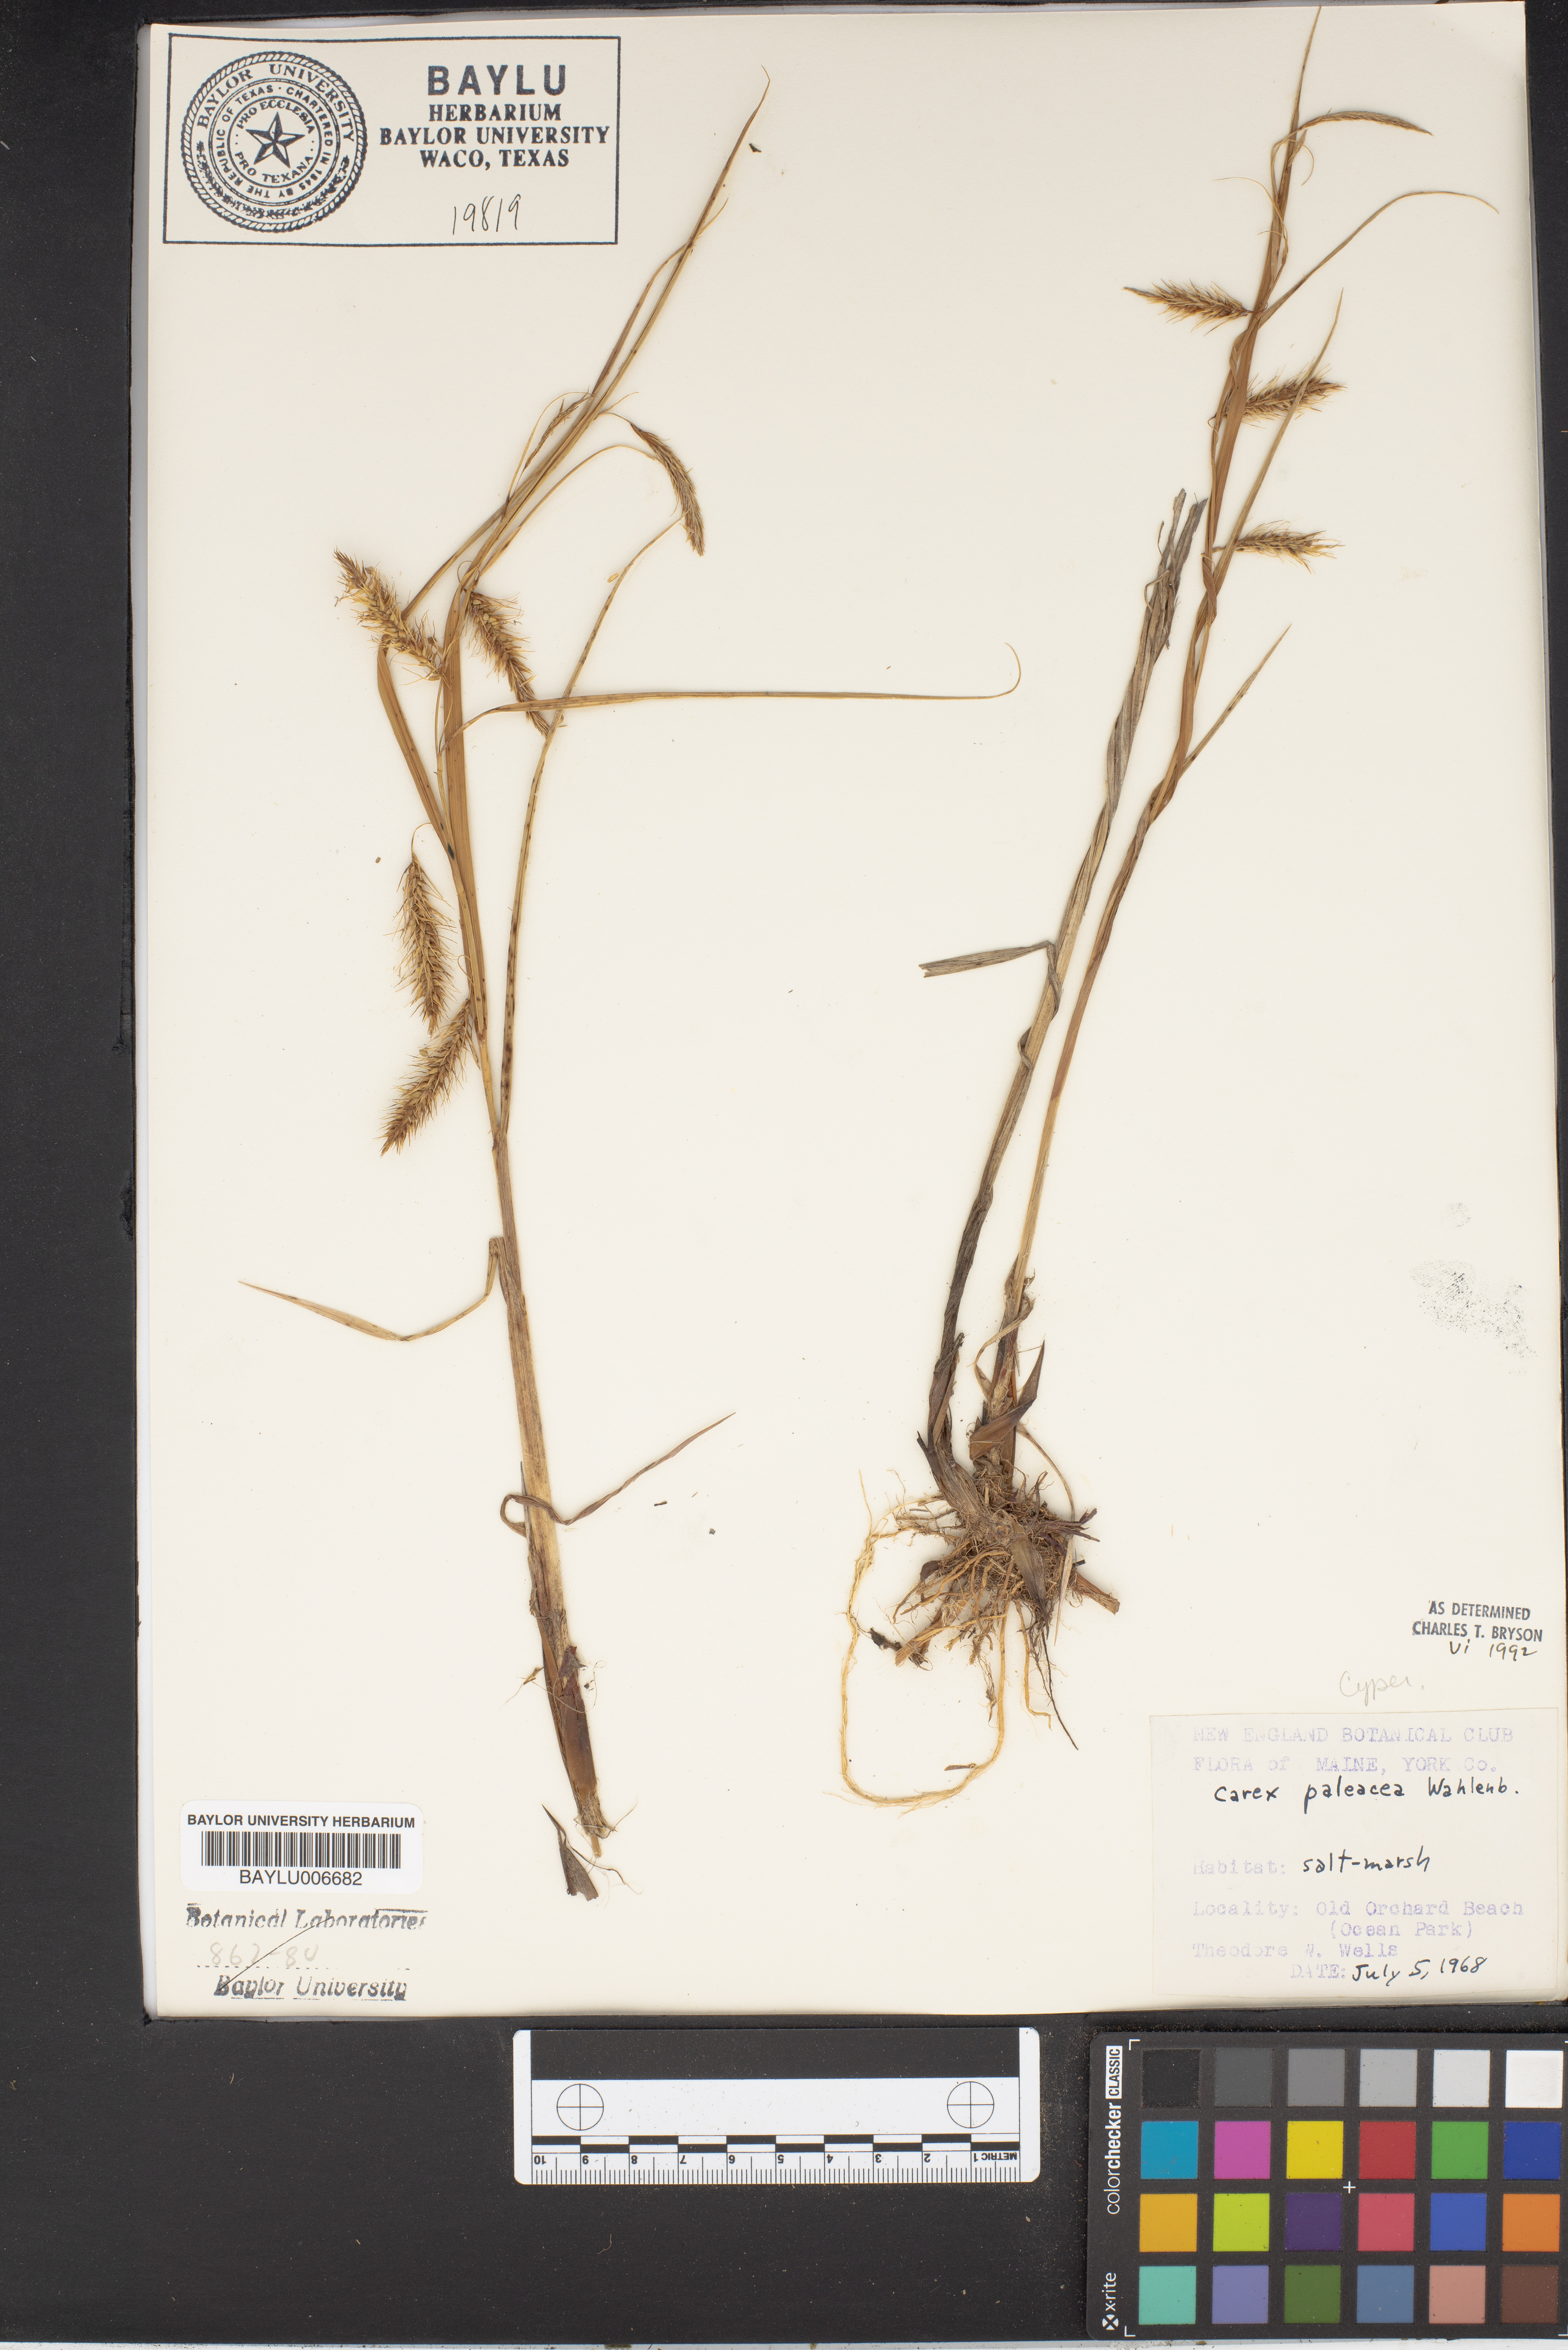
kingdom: Plantae
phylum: Tracheophyta
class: Liliopsida
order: Poales
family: Cyperaceae
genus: Carex
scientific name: Carex paleacea
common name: Chaffy sedge
